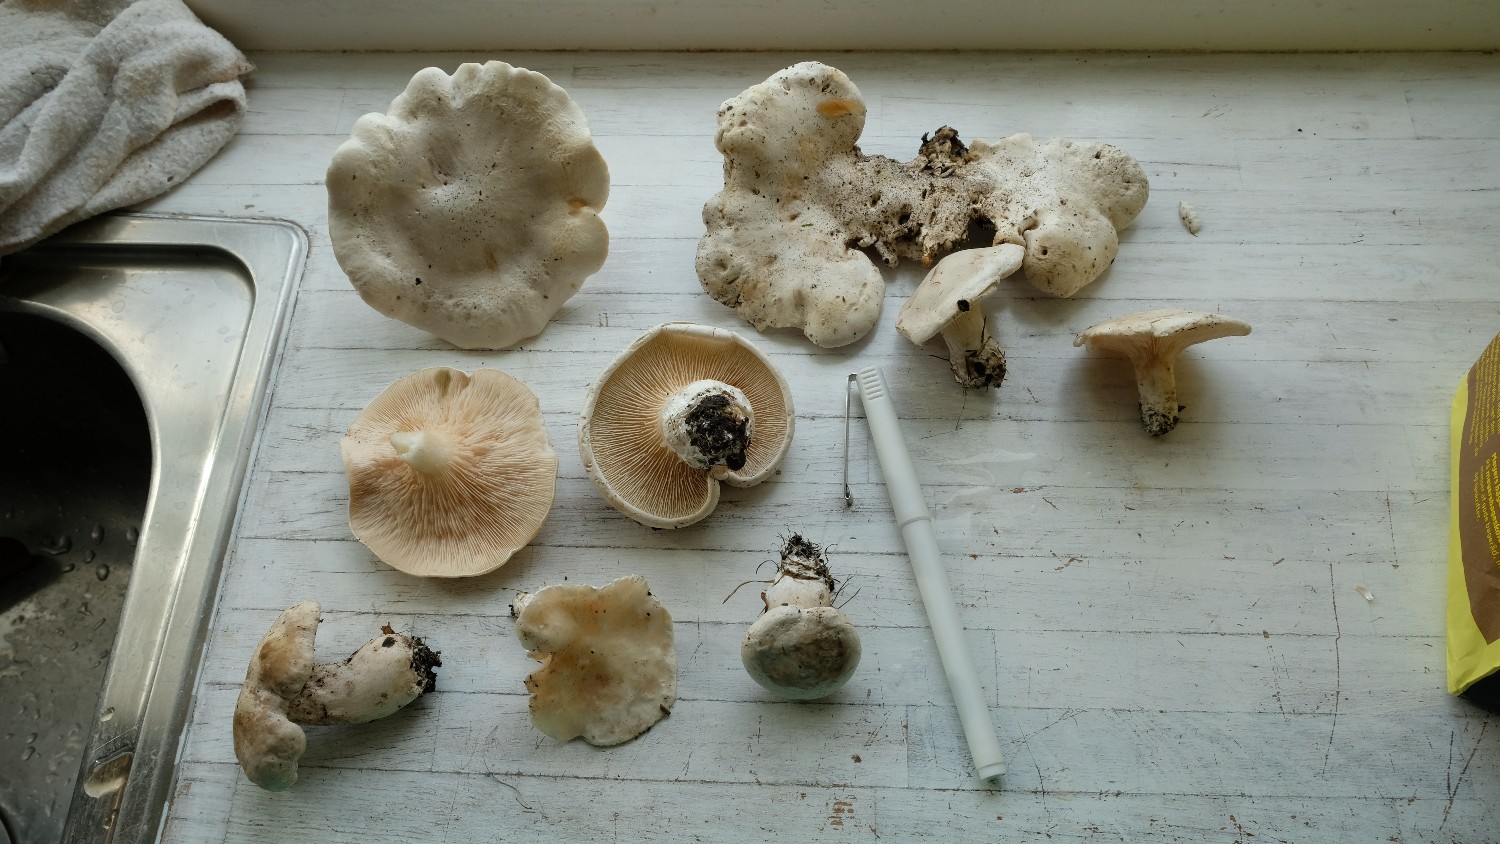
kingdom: Fungi
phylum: Basidiomycota
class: Agaricomycetes
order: Agaricales
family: Entolomataceae
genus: Clitopilus
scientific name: Clitopilus prunulus
